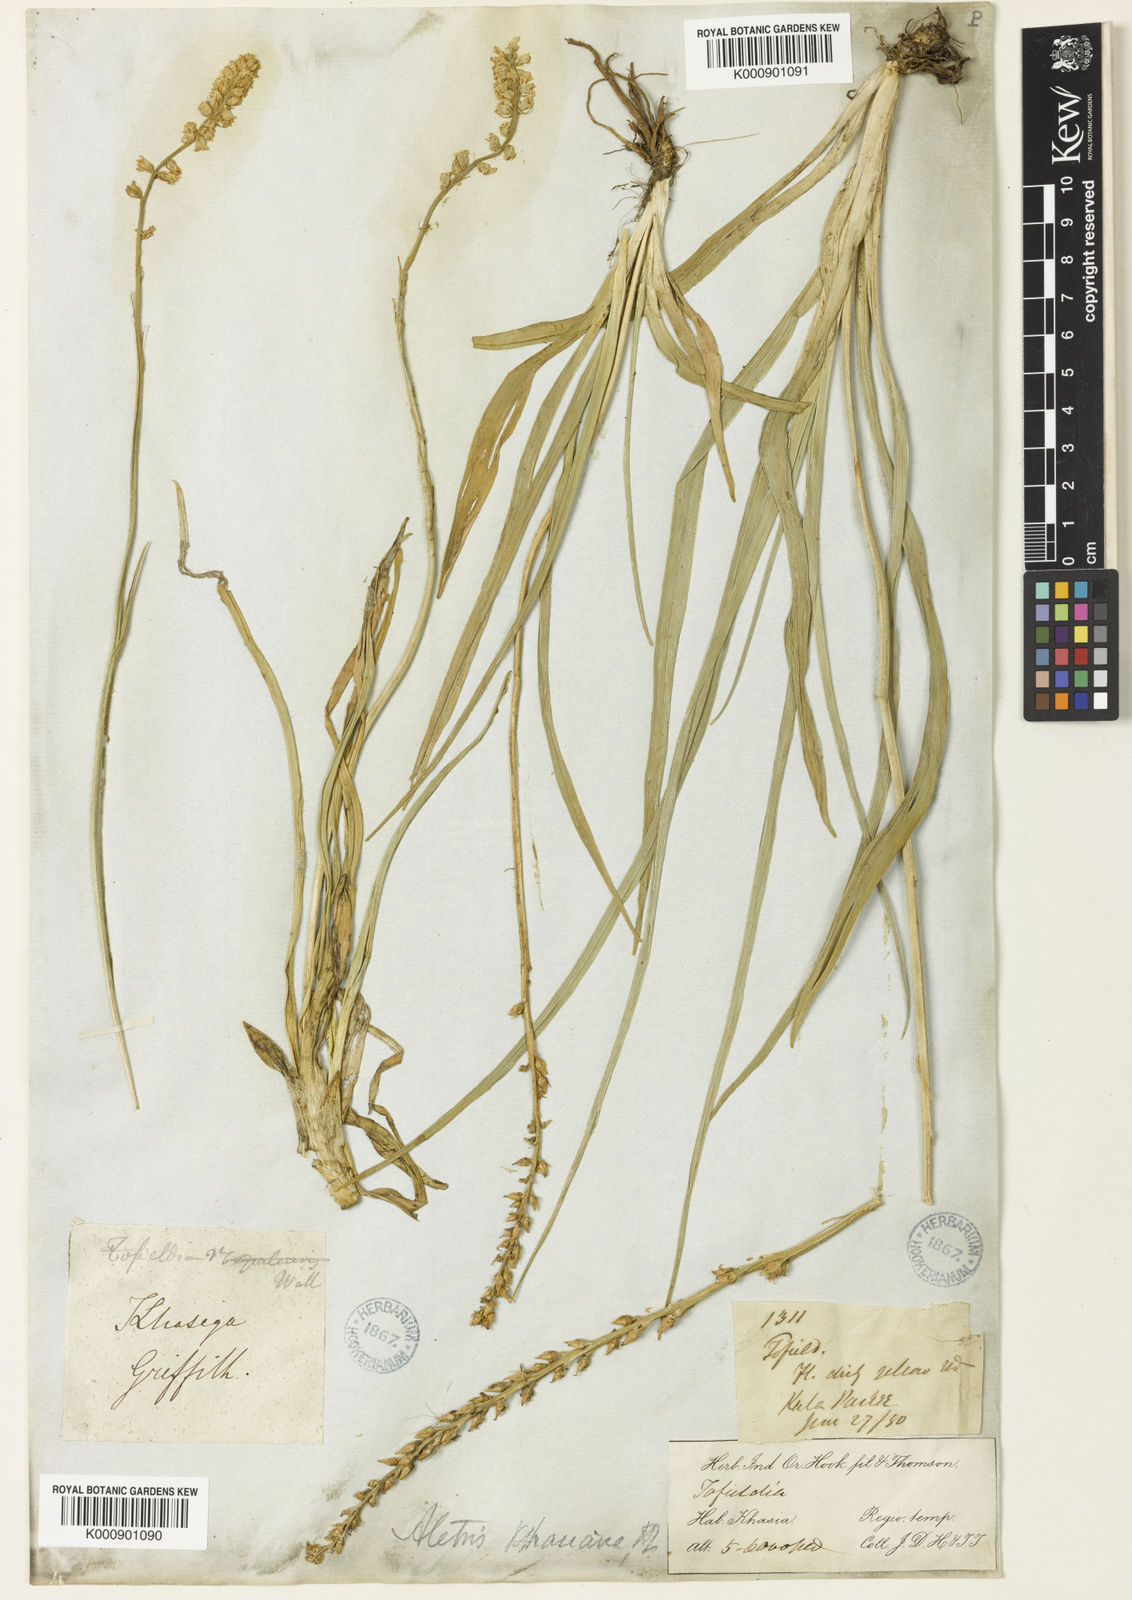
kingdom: Plantae
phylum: Tracheophyta
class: Liliopsida
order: Dioscoreales
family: Nartheciaceae
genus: Aletris
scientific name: Aletris pauciflora
